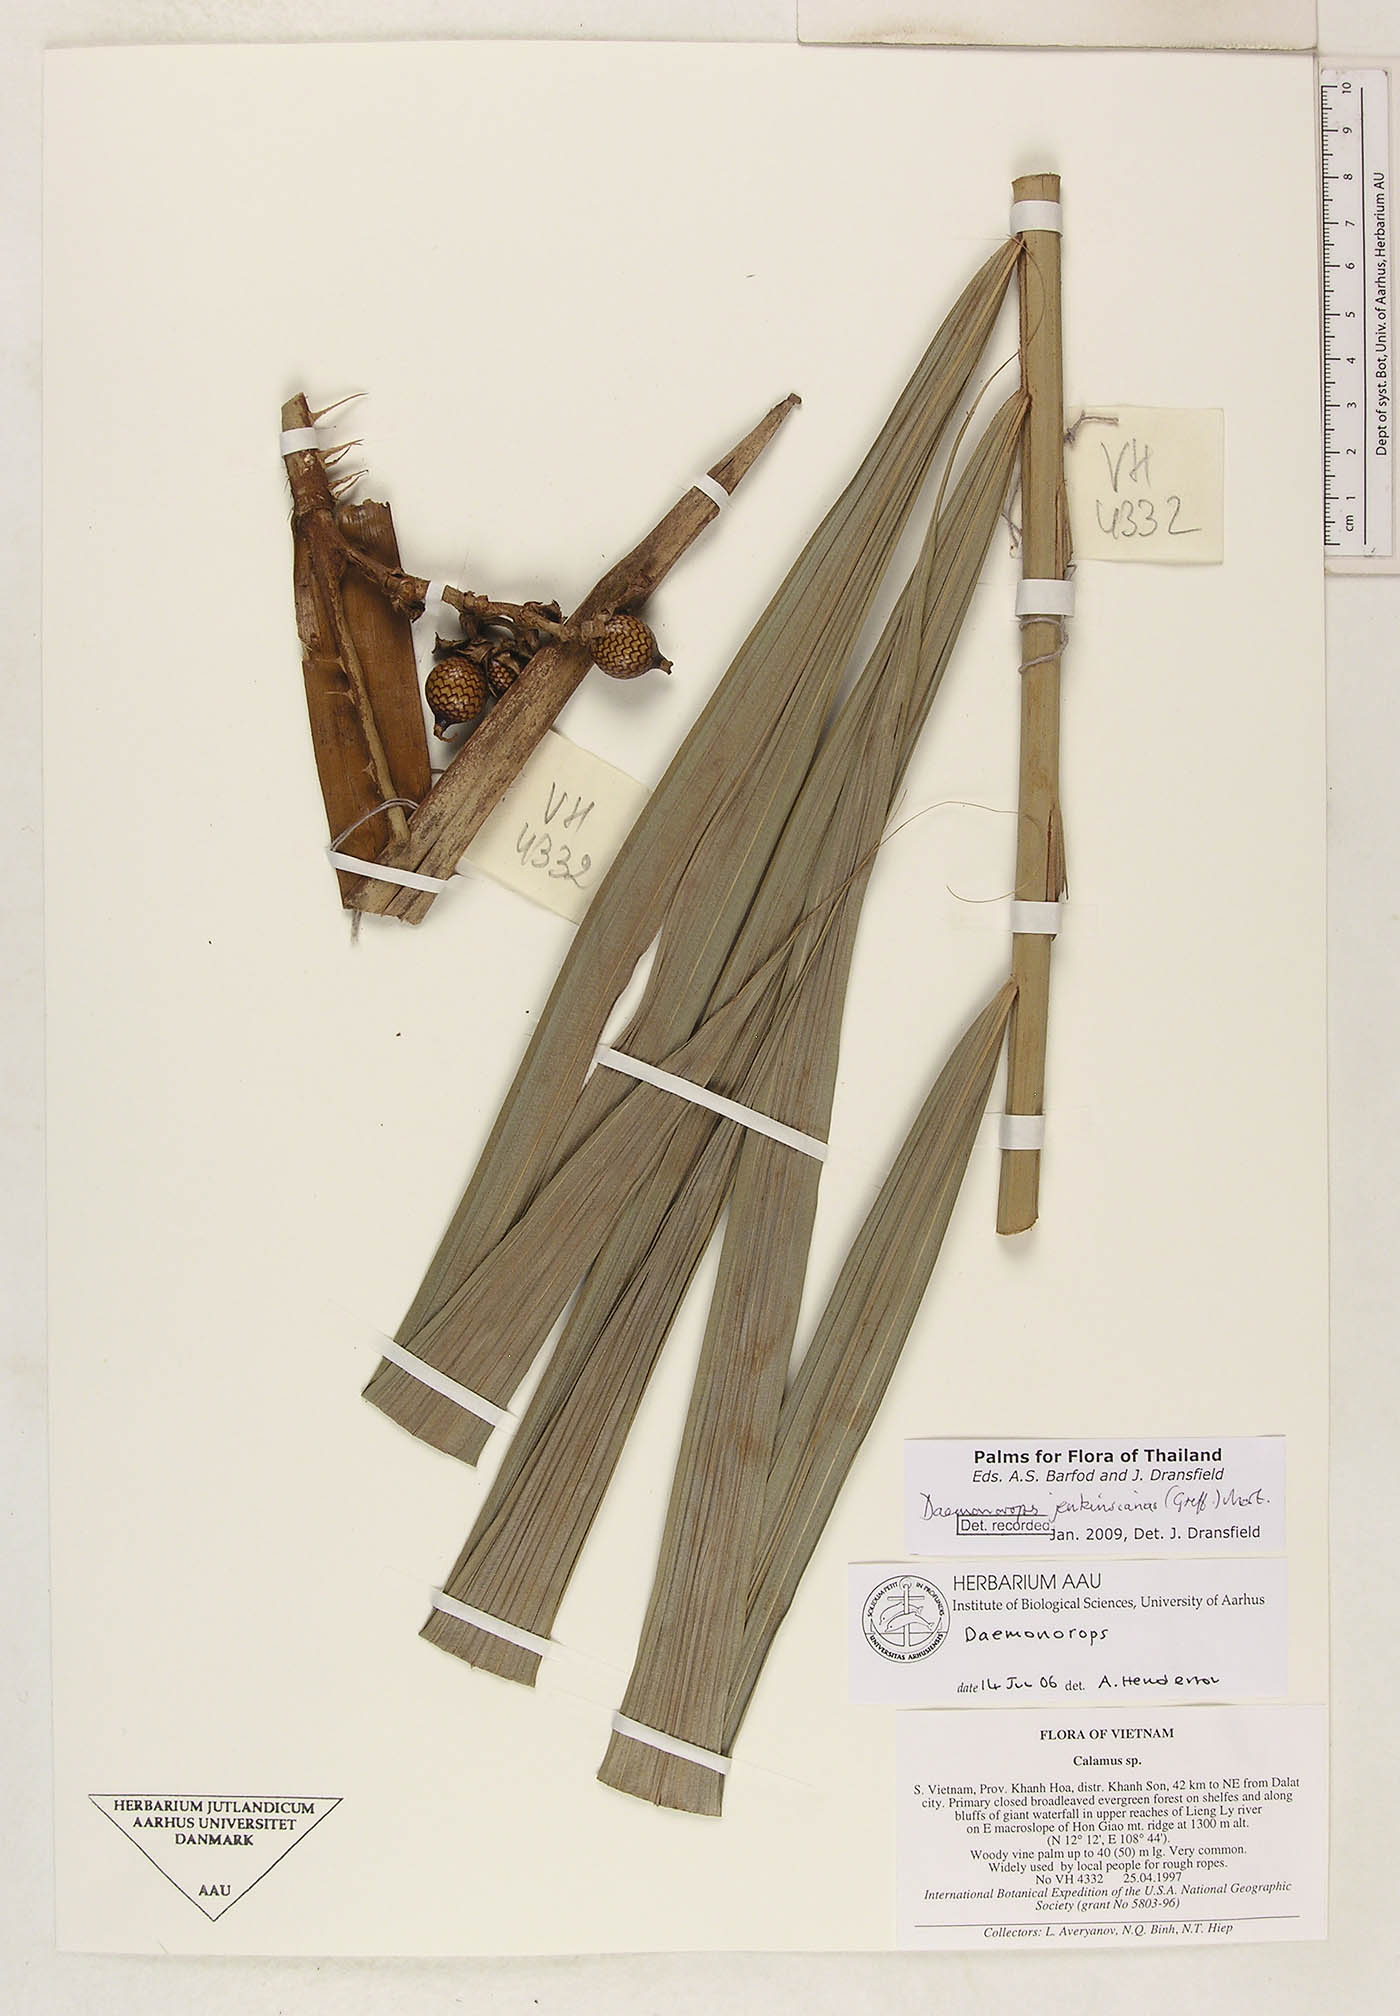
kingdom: Plantae
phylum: Tracheophyta
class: Liliopsida
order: Arecales
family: Arecaceae
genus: Calamus
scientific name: Calamus melanochaetes
